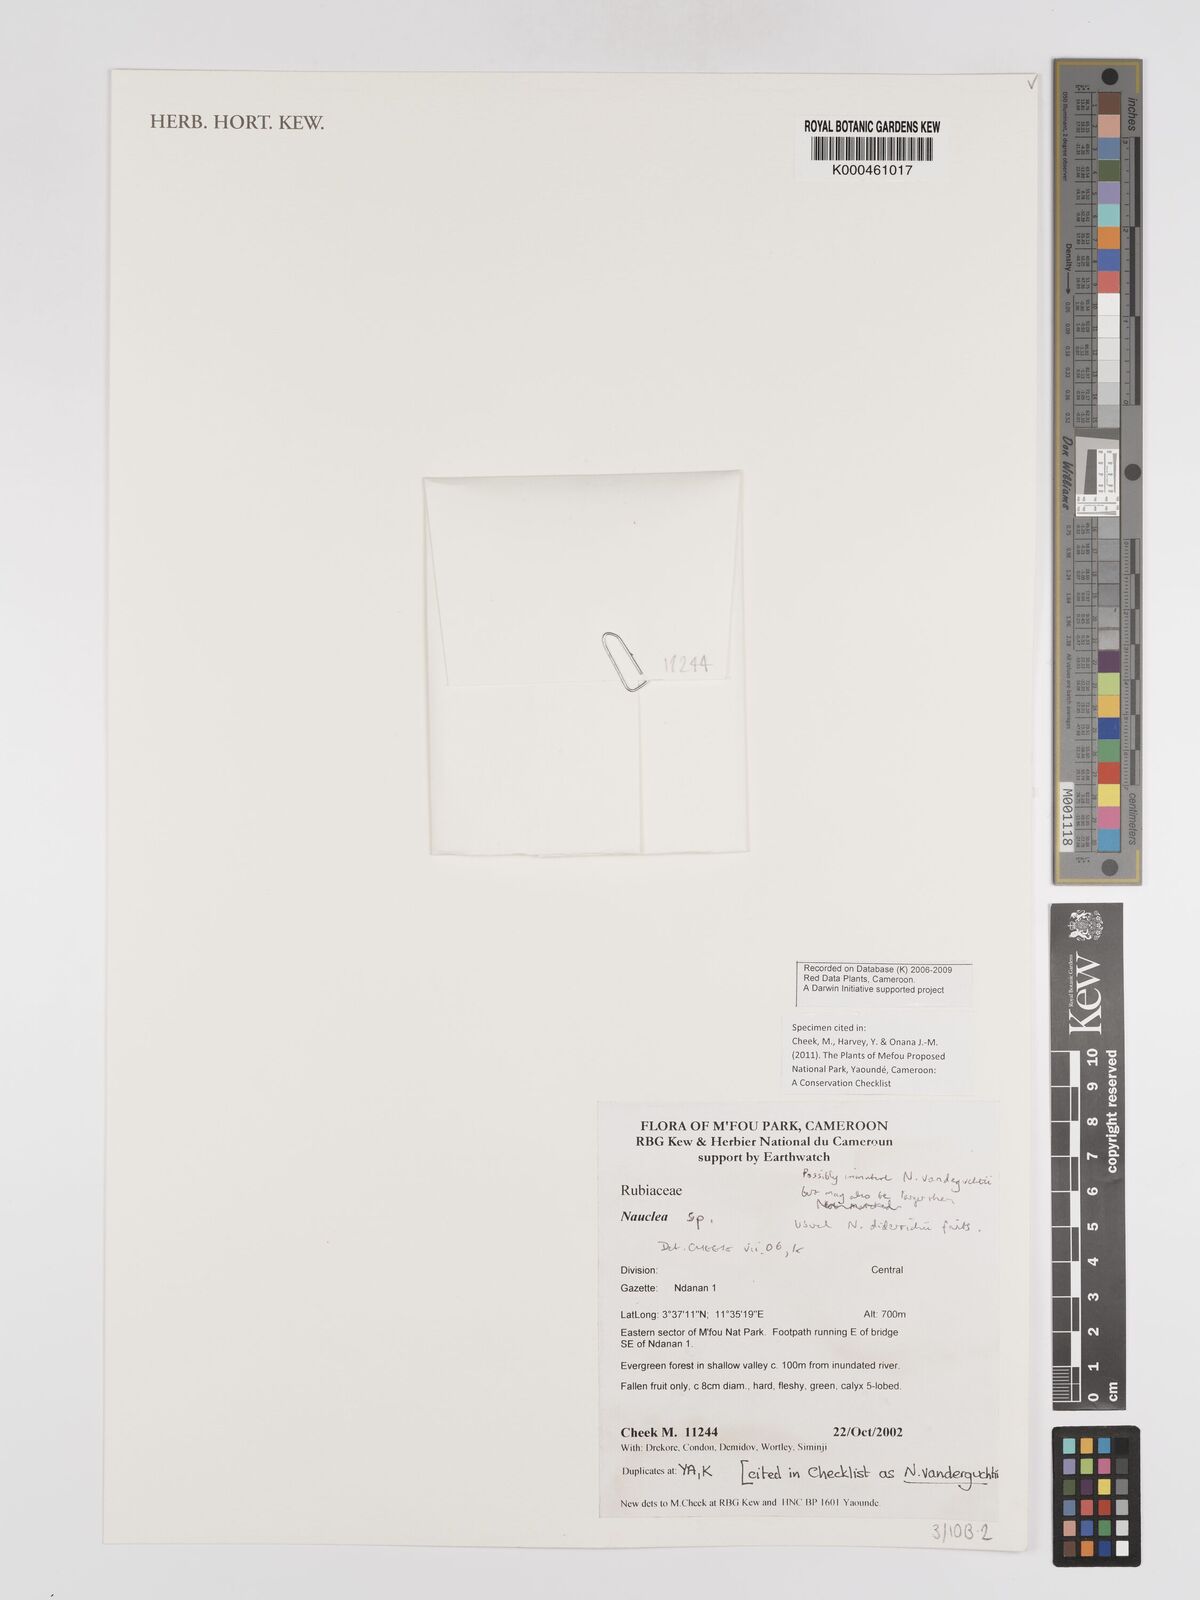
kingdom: Plantae
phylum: Tracheophyta
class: Magnoliopsida
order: Gentianales
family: Rubiaceae
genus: Nauclea
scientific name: Nauclea vanderguchtii
